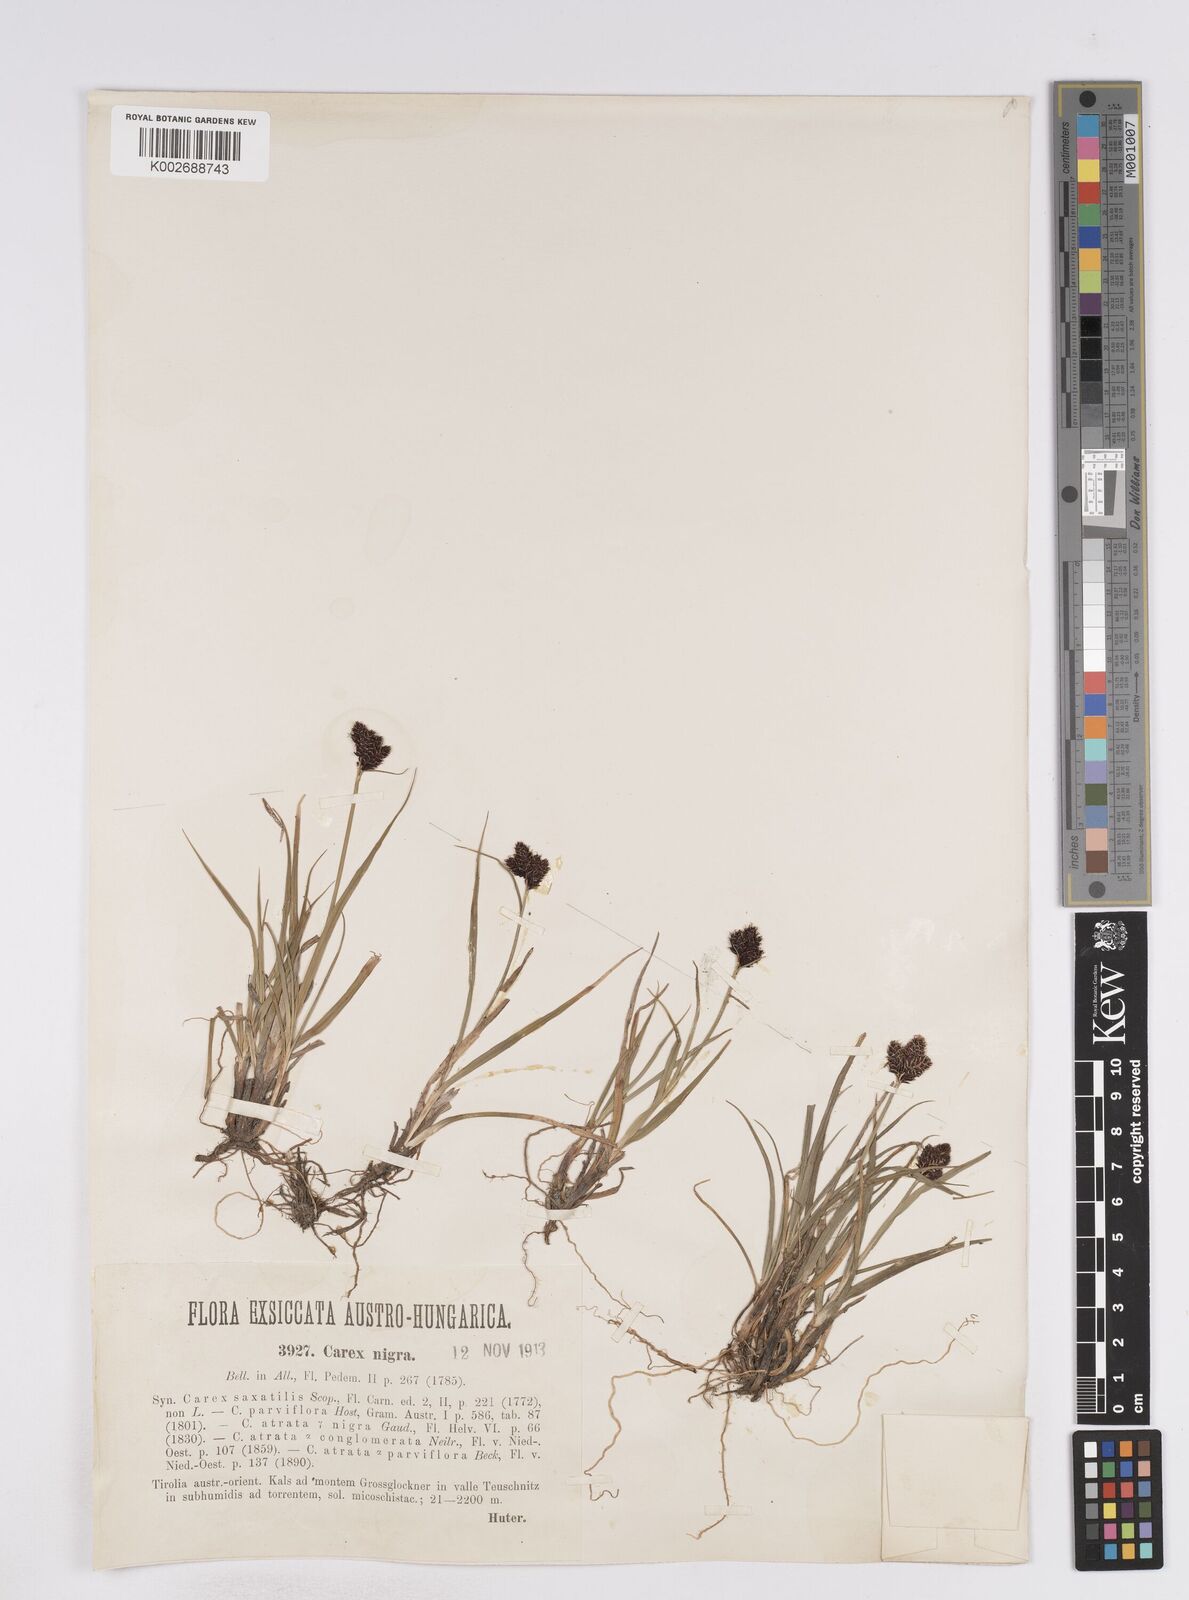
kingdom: Plantae
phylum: Tracheophyta
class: Liliopsida
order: Poales
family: Cyperaceae
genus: Carex
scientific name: Carex parviflora
